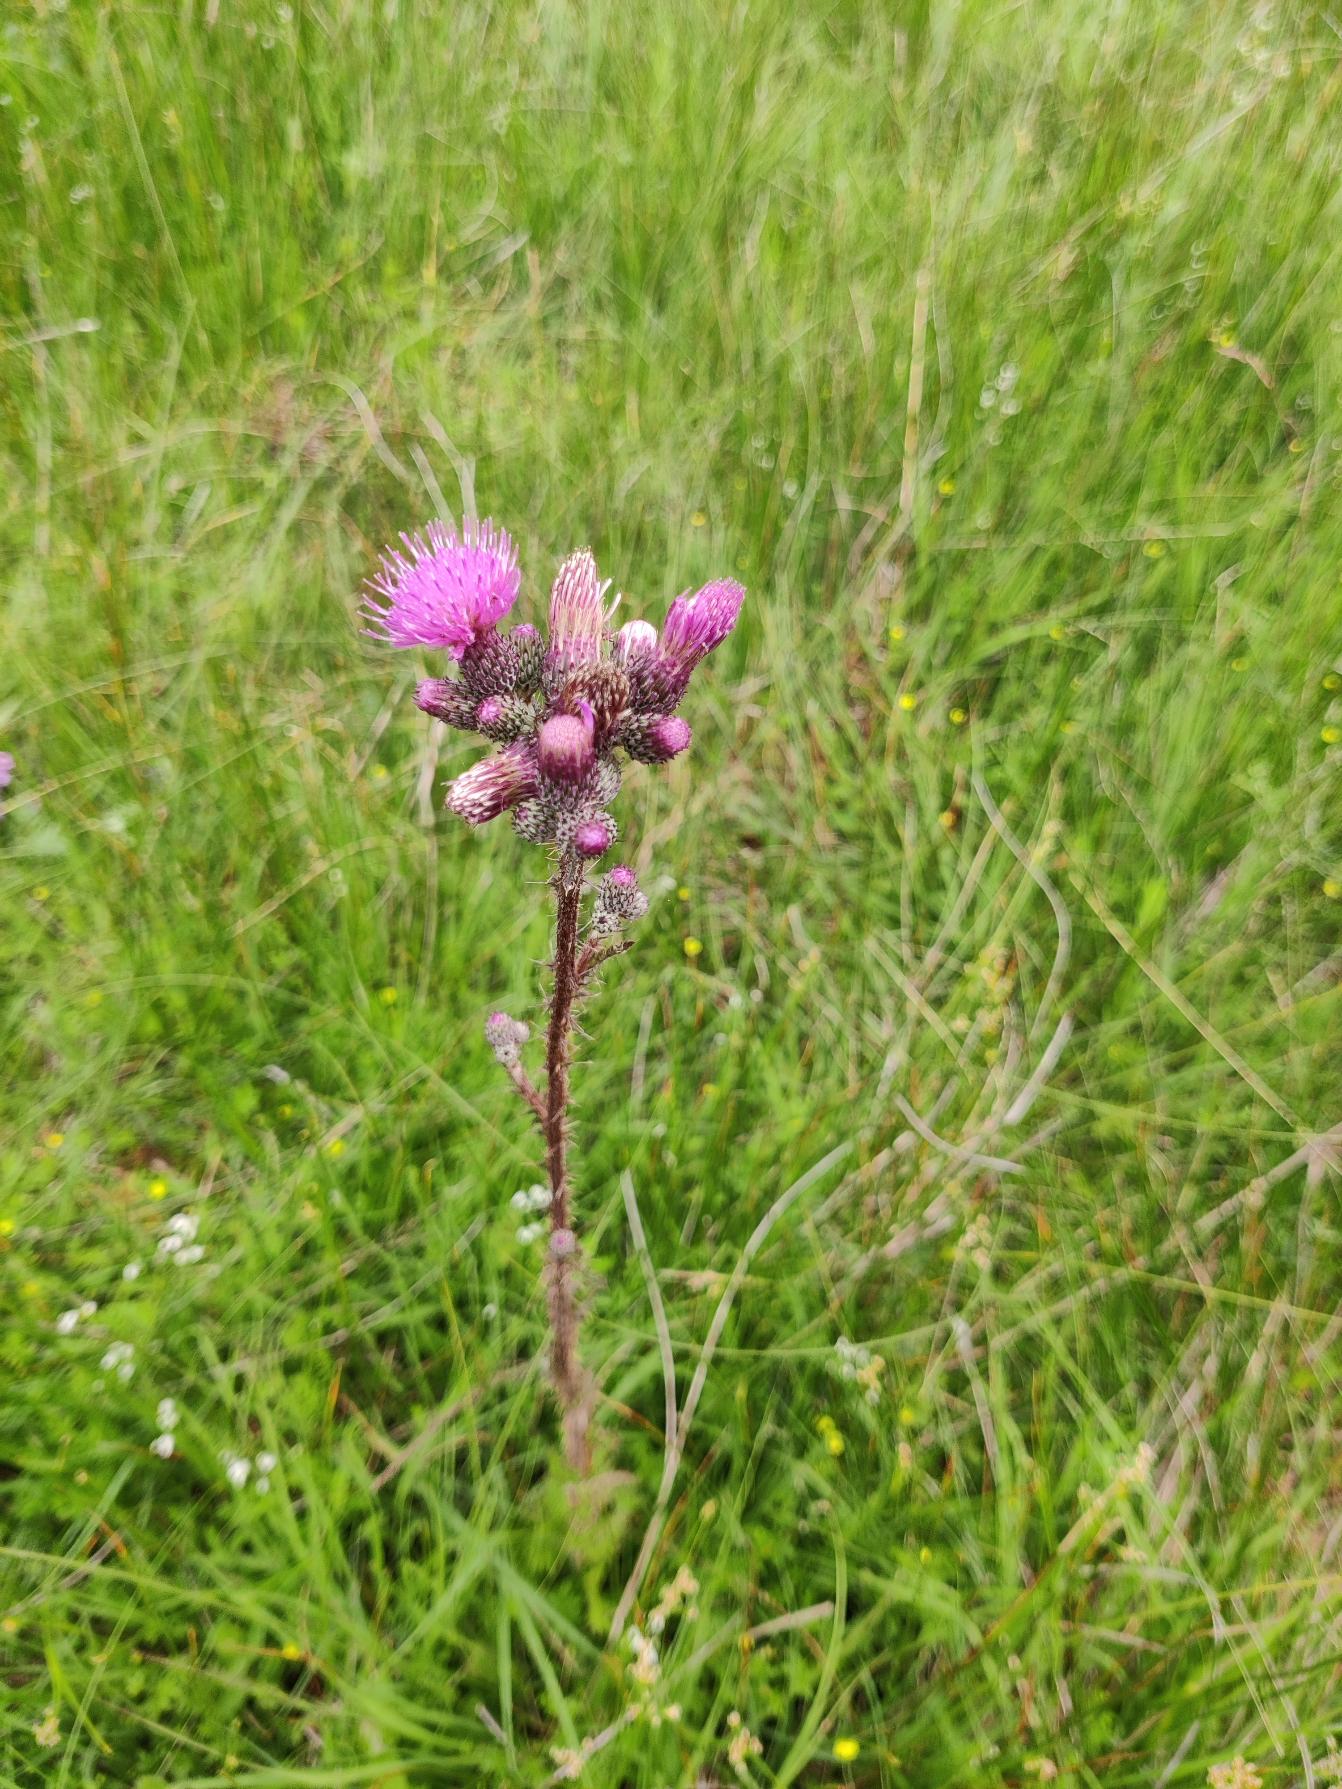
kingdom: Plantae
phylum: Tracheophyta
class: Magnoliopsida
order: Asterales
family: Asteraceae
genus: Cirsium
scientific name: Cirsium palustre
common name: Kær-tidsel
